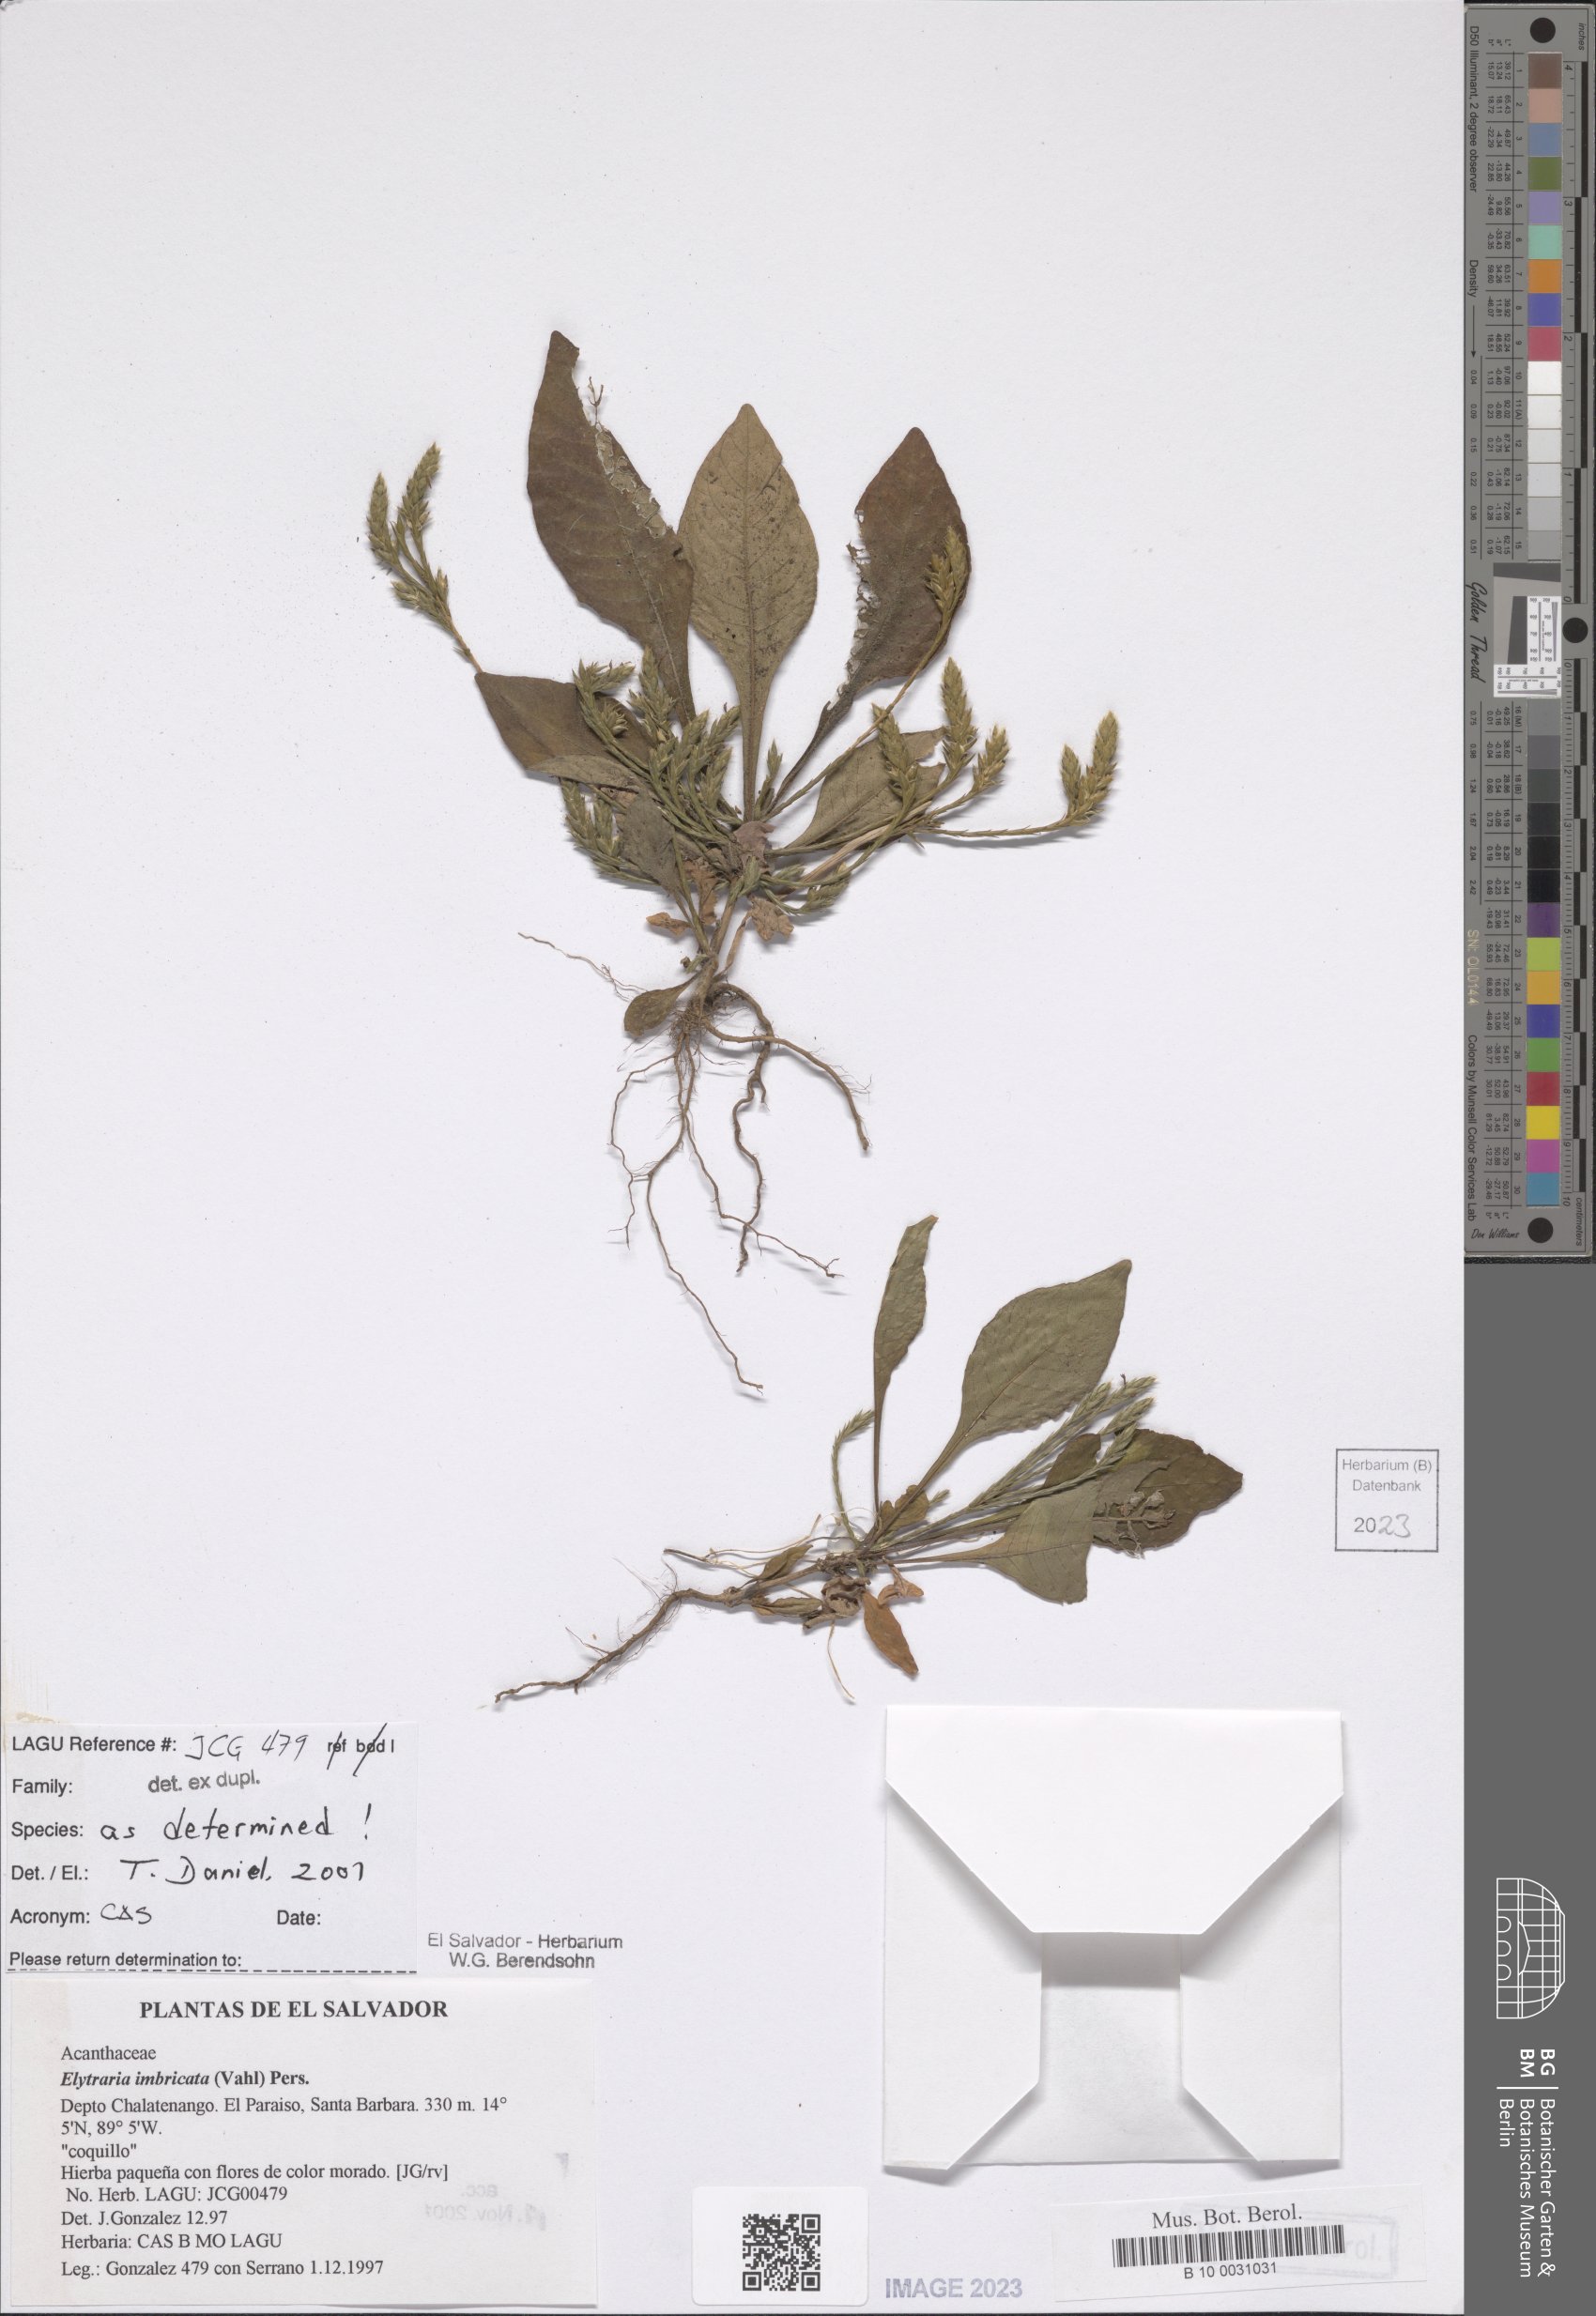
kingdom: Plantae
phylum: Tracheophyta
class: Magnoliopsida
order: Lamiales
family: Acanthaceae
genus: Elytraria
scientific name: Elytraria imbricata
